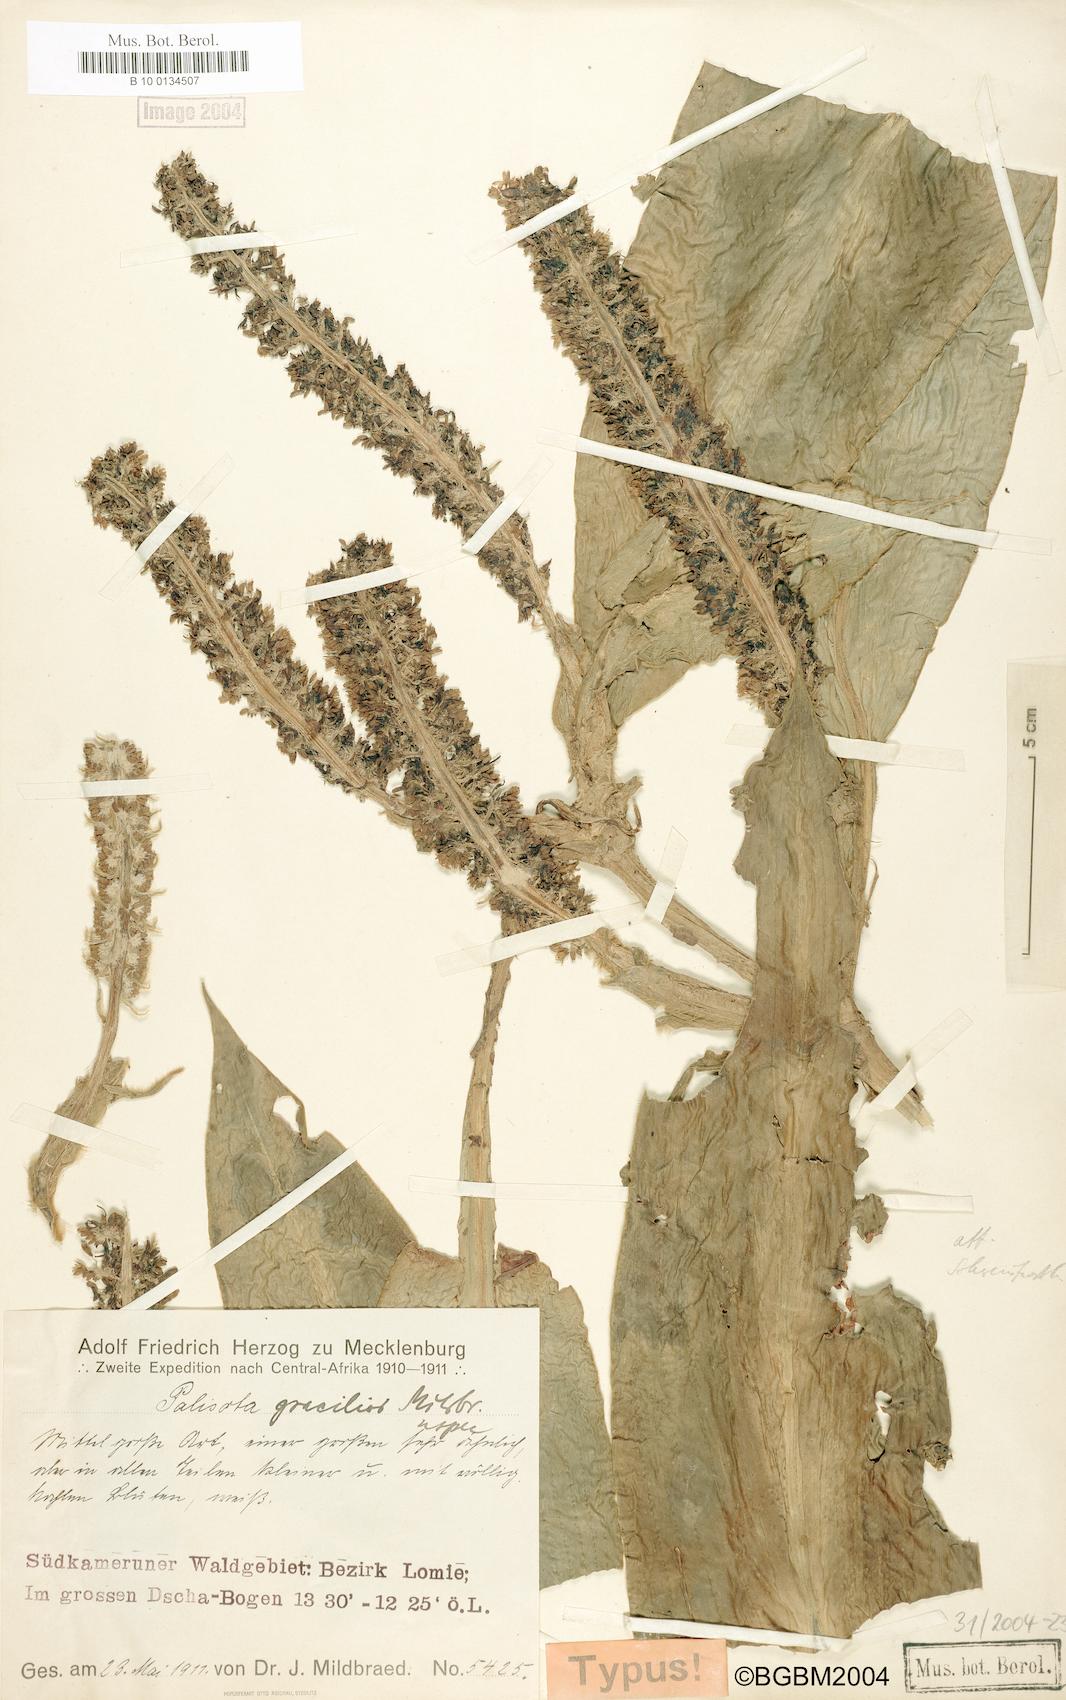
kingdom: Plantae
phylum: Tracheophyta
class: Liliopsida
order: Commelinales
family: Commelinaceae
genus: Palisota
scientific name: Palisota schweinfurthii
